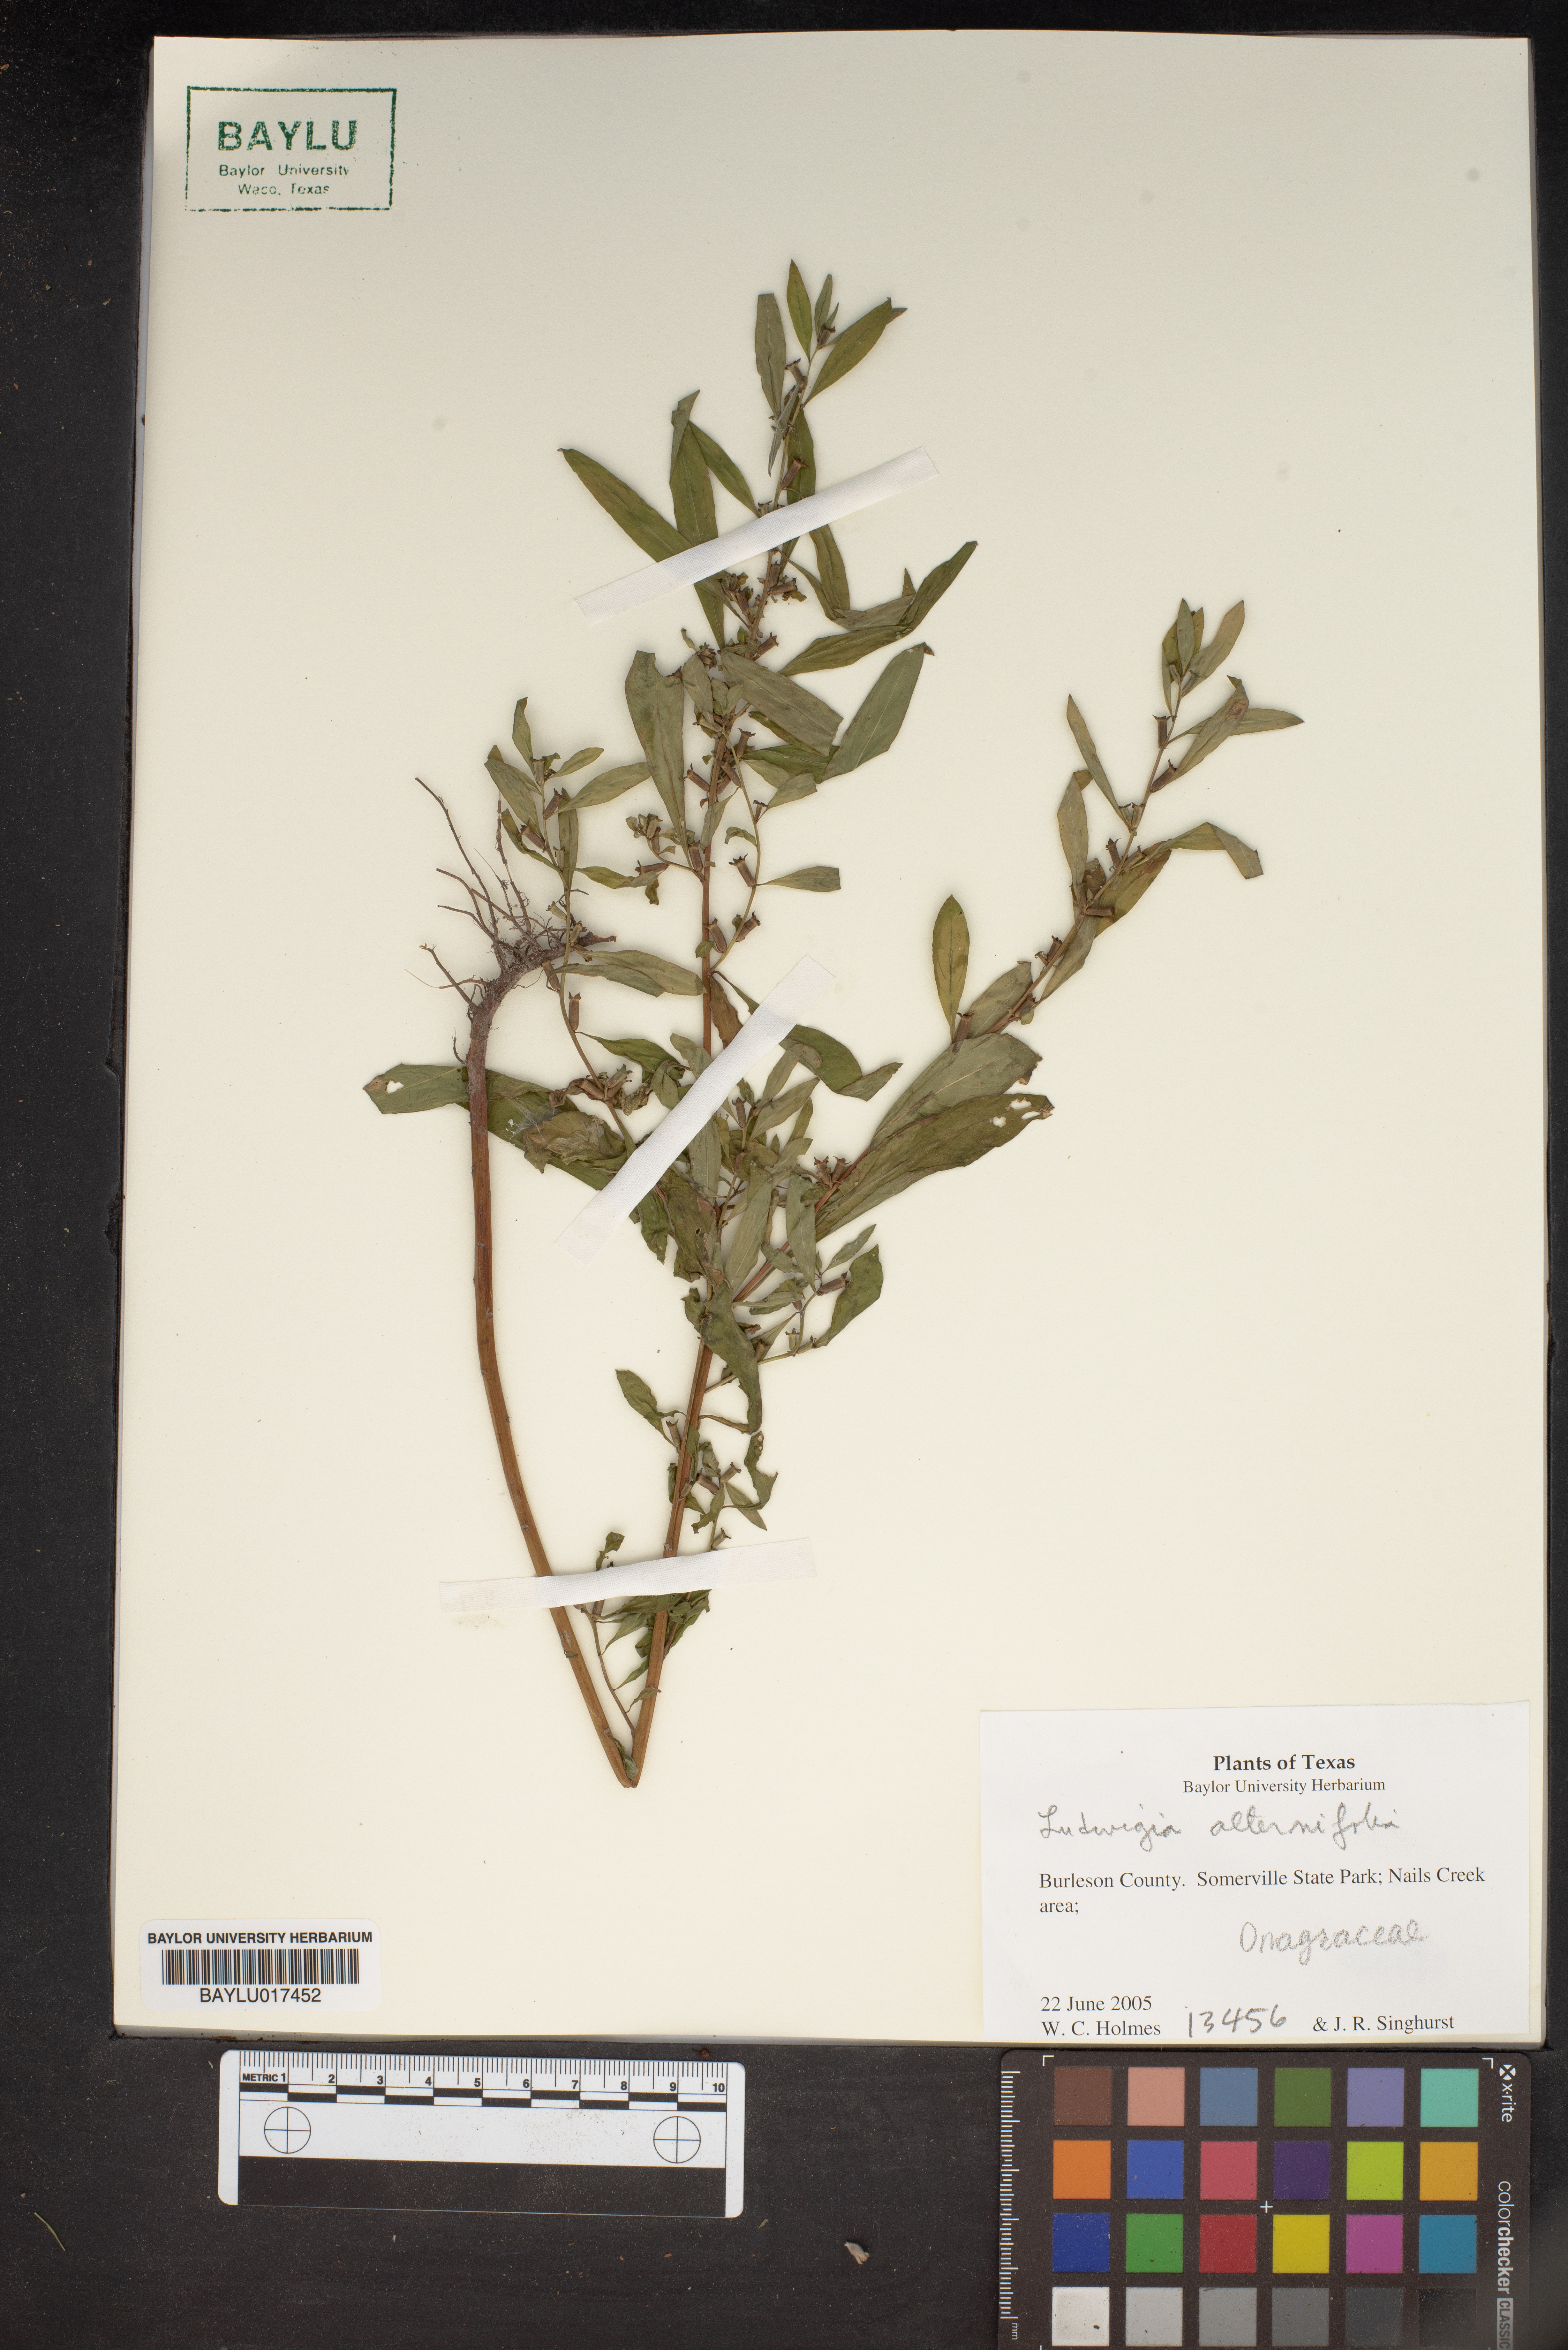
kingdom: Plantae
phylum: Tracheophyta
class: Magnoliopsida
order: Myrtales
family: Onagraceae
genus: Ludwigia
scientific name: Ludwigia alternifolia
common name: Rattlebox
